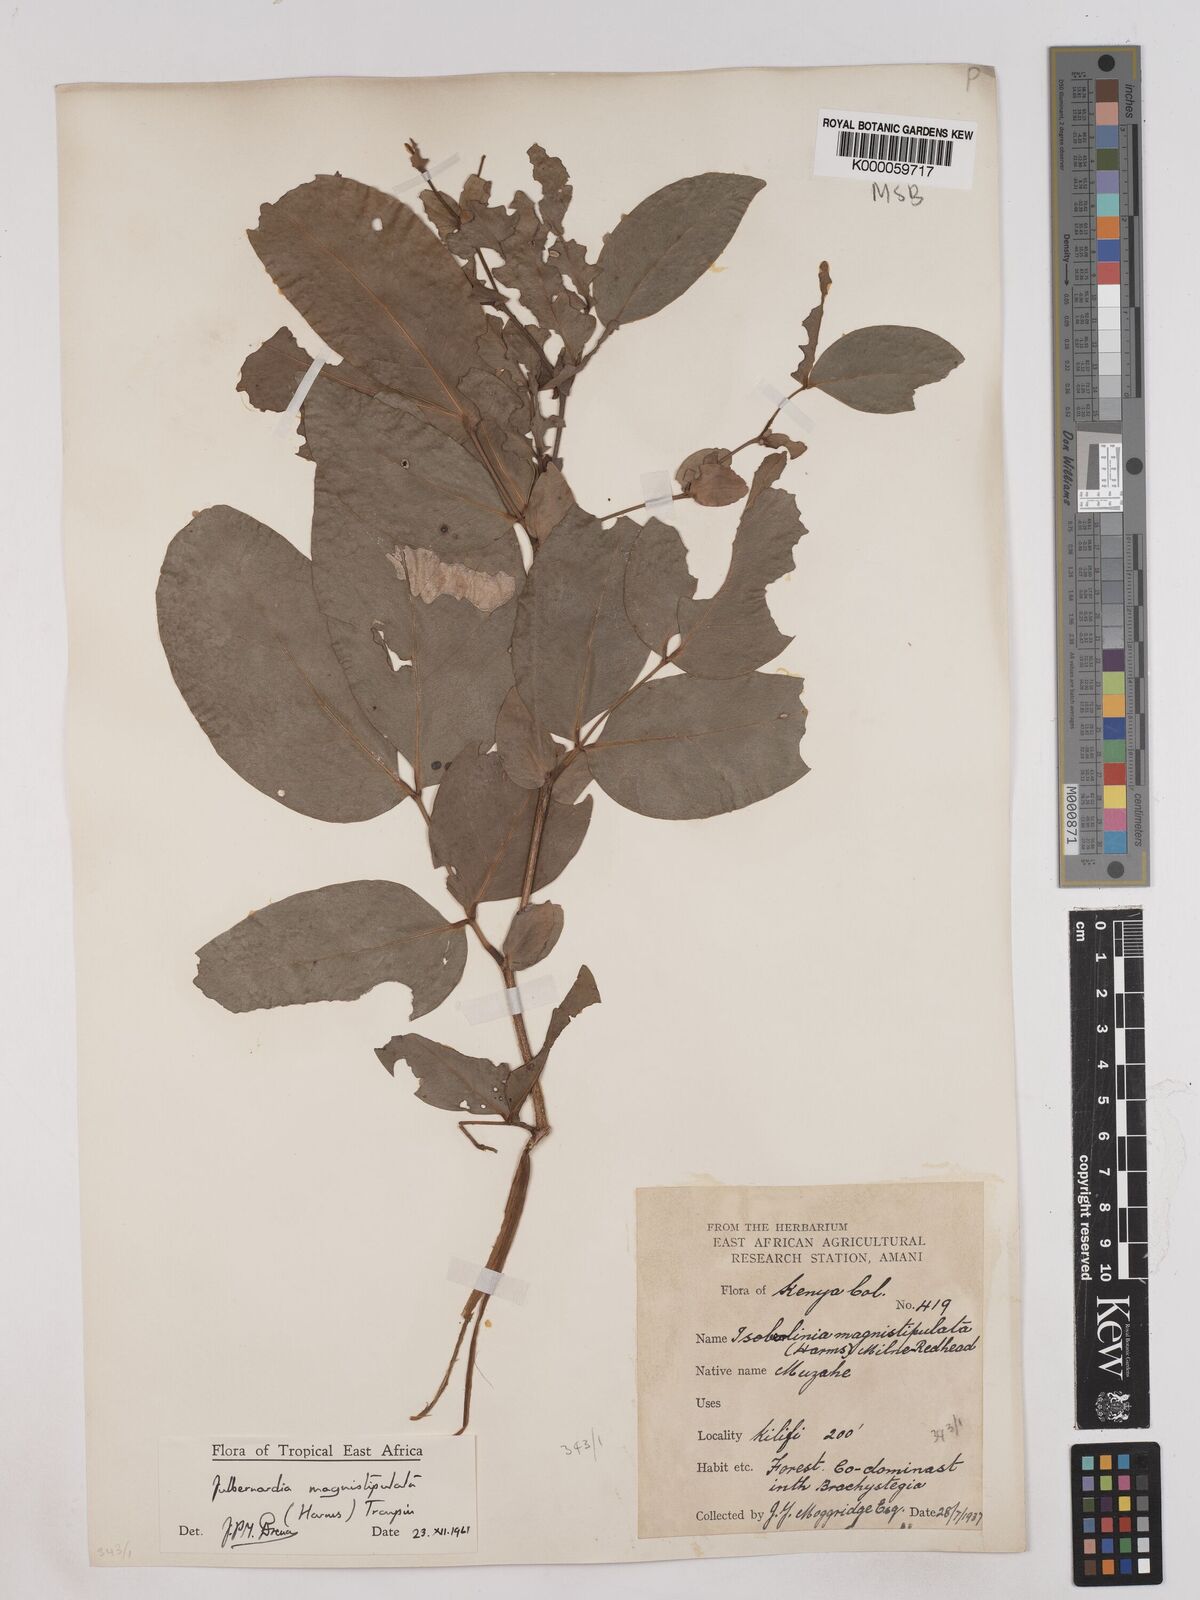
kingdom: Plantae
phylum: Tracheophyta
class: Magnoliopsida
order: Fabales
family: Fabaceae
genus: Julbernardia
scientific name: Julbernardia magnistipulata
